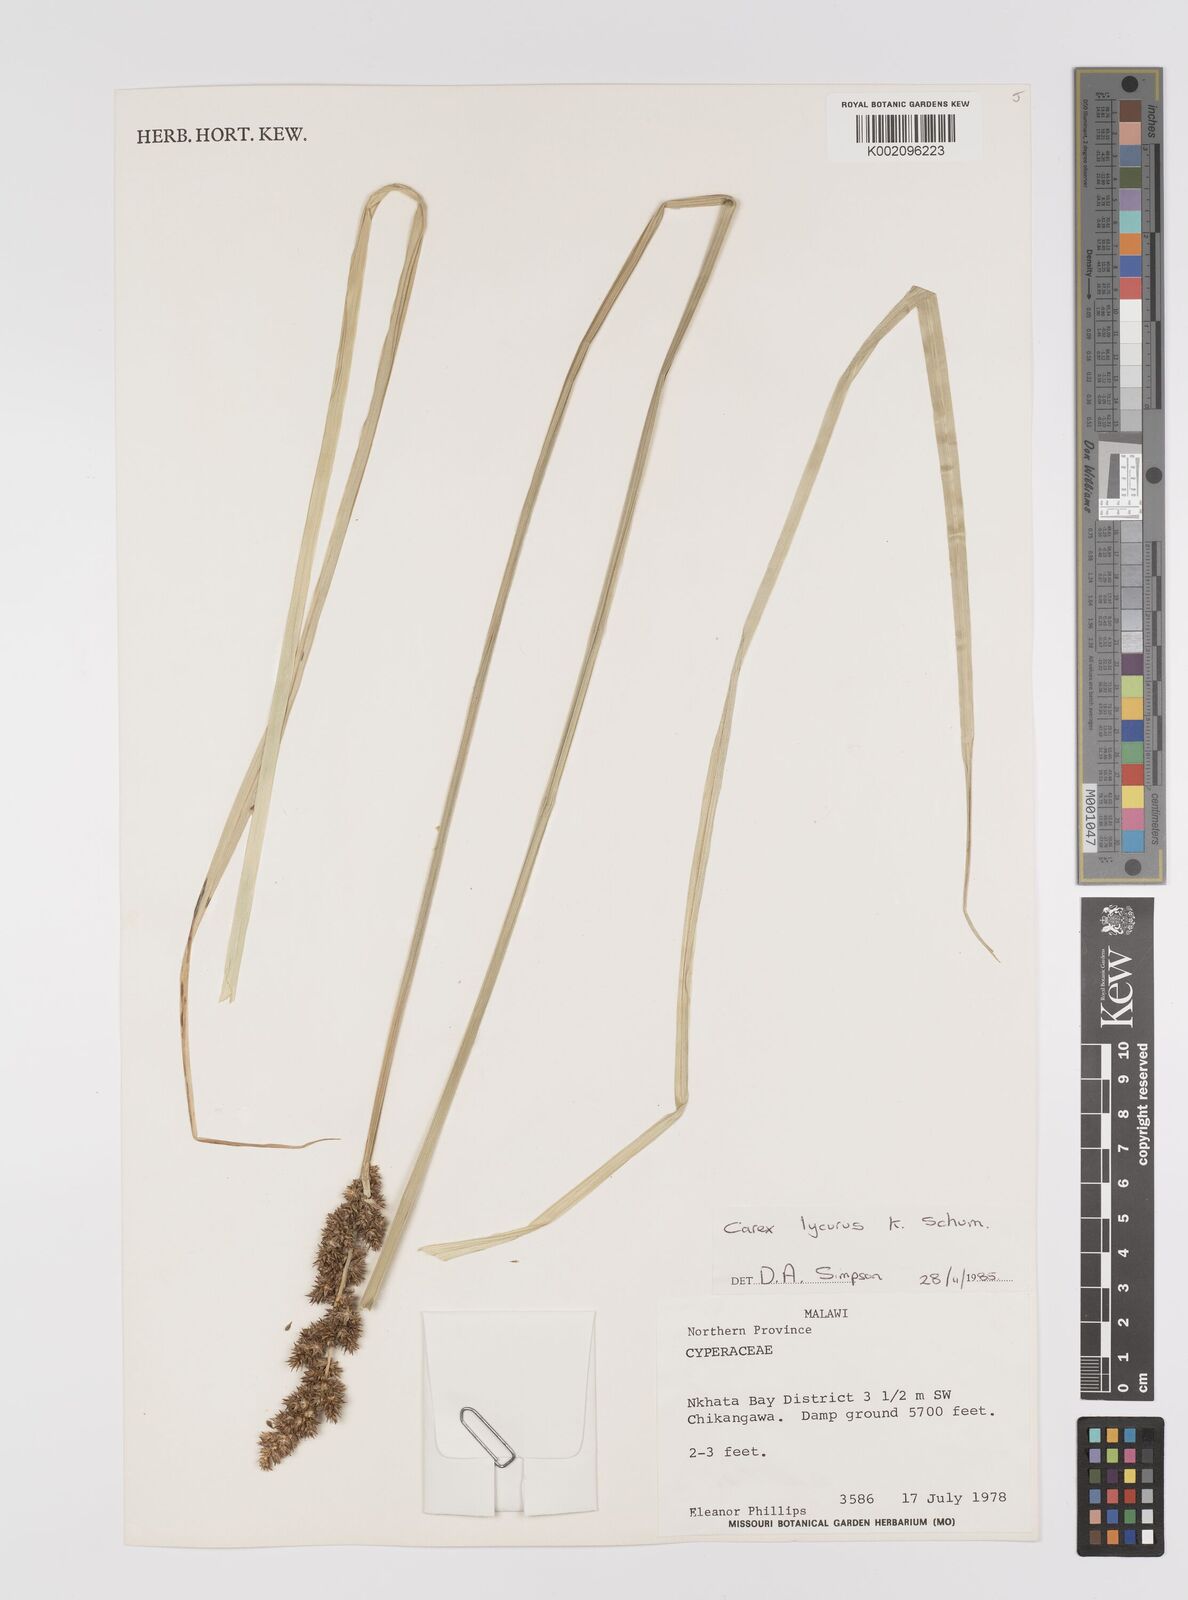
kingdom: Plantae
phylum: Tracheophyta
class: Liliopsida
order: Poales
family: Cyperaceae
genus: Carex
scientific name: Carex lycurus
